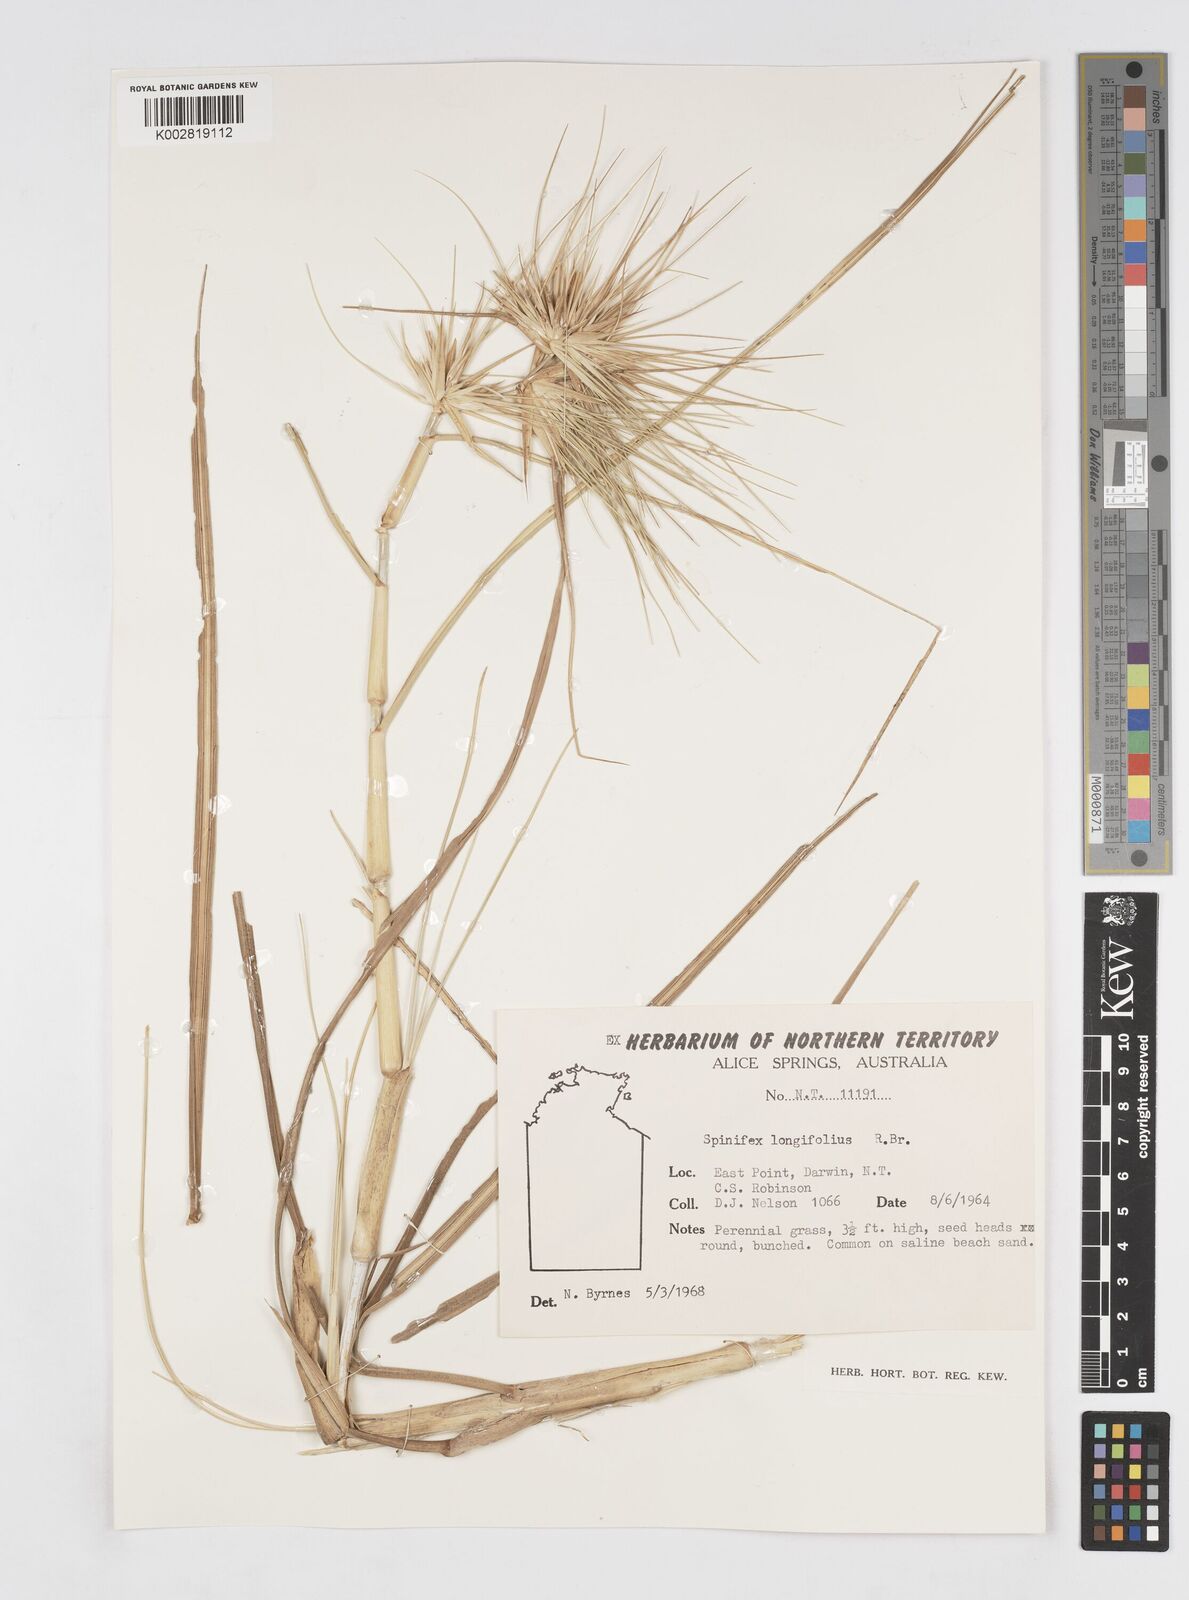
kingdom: Plantae
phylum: Tracheophyta
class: Liliopsida
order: Poales
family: Poaceae
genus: Spinifex
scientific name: Spinifex longifolius
